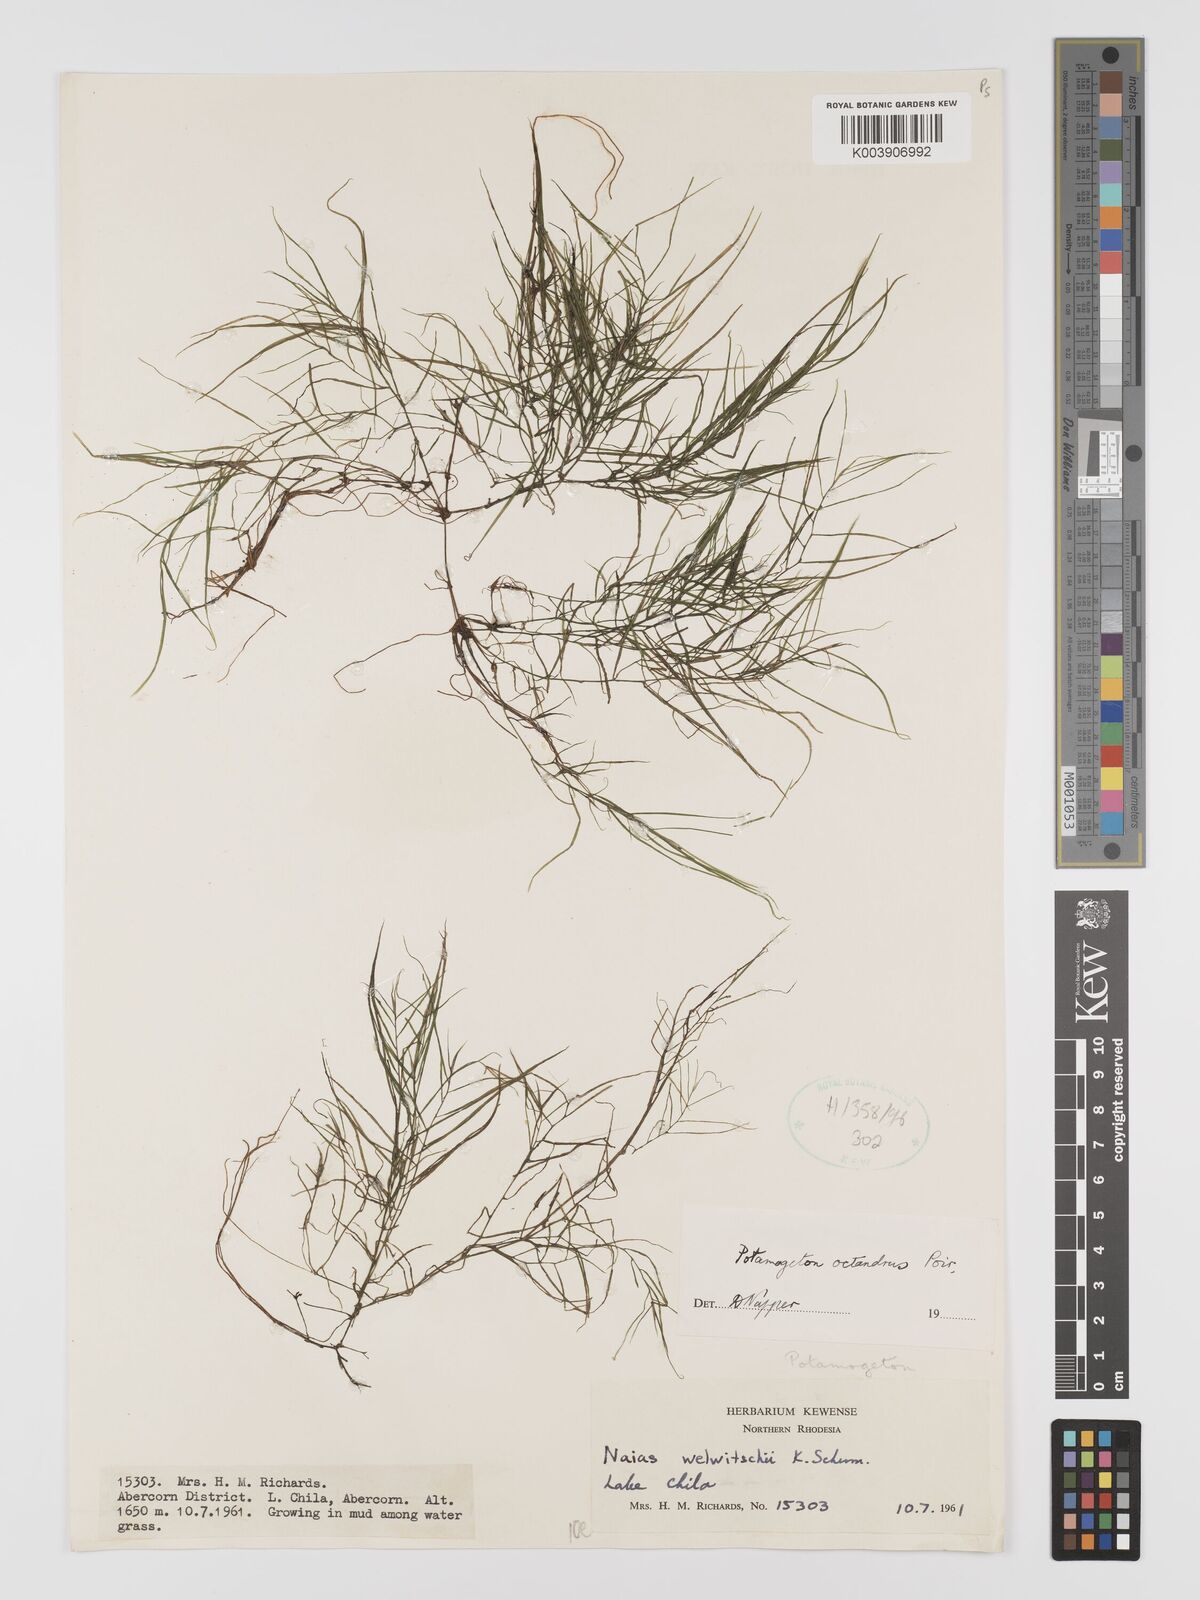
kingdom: Plantae
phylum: Tracheophyta
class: Liliopsida
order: Alismatales
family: Potamogetonaceae
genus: Potamogeton
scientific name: Potamogeton octandrus
